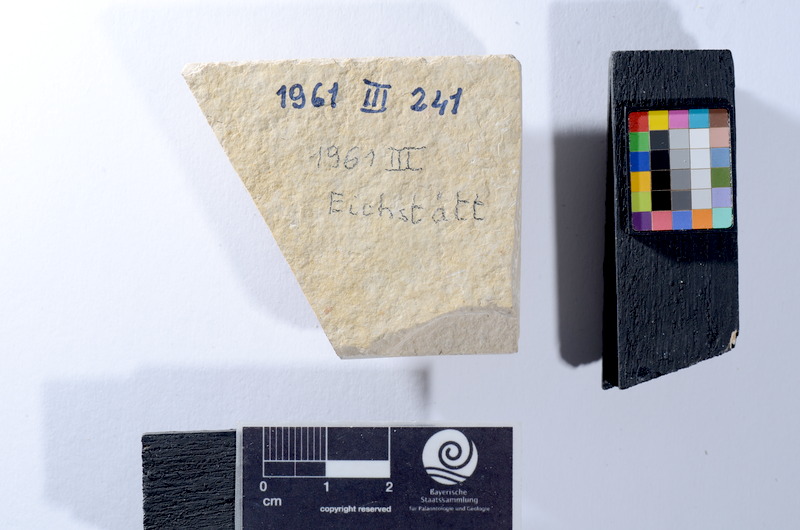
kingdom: Animalia
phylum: Chordata
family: Ascalaboidae
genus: Tharsis
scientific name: Tharsis dubius
